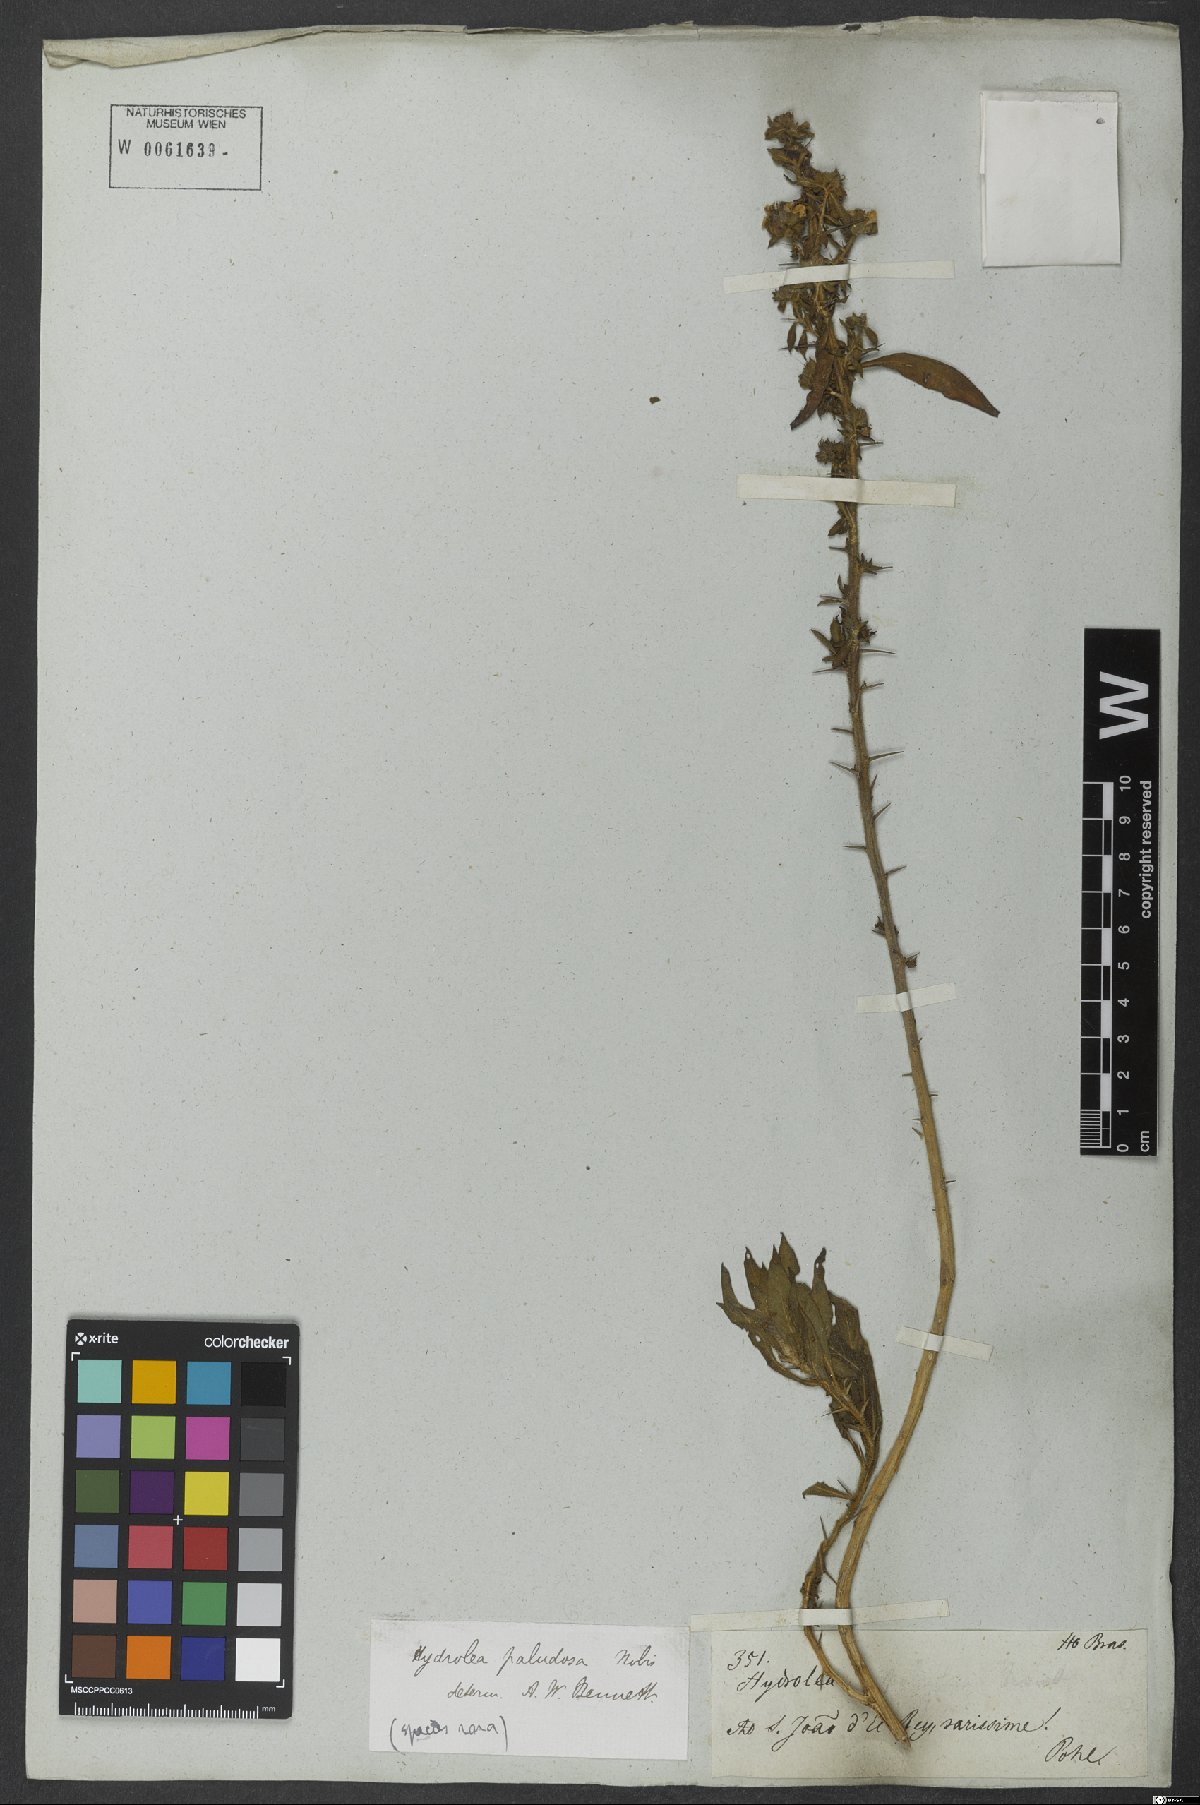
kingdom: Plantae
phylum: Tracheophyta
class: Magnoliopsida
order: Solanales
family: Hydroleaceae
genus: Hydrolea
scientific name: Hydrolea spinosa
